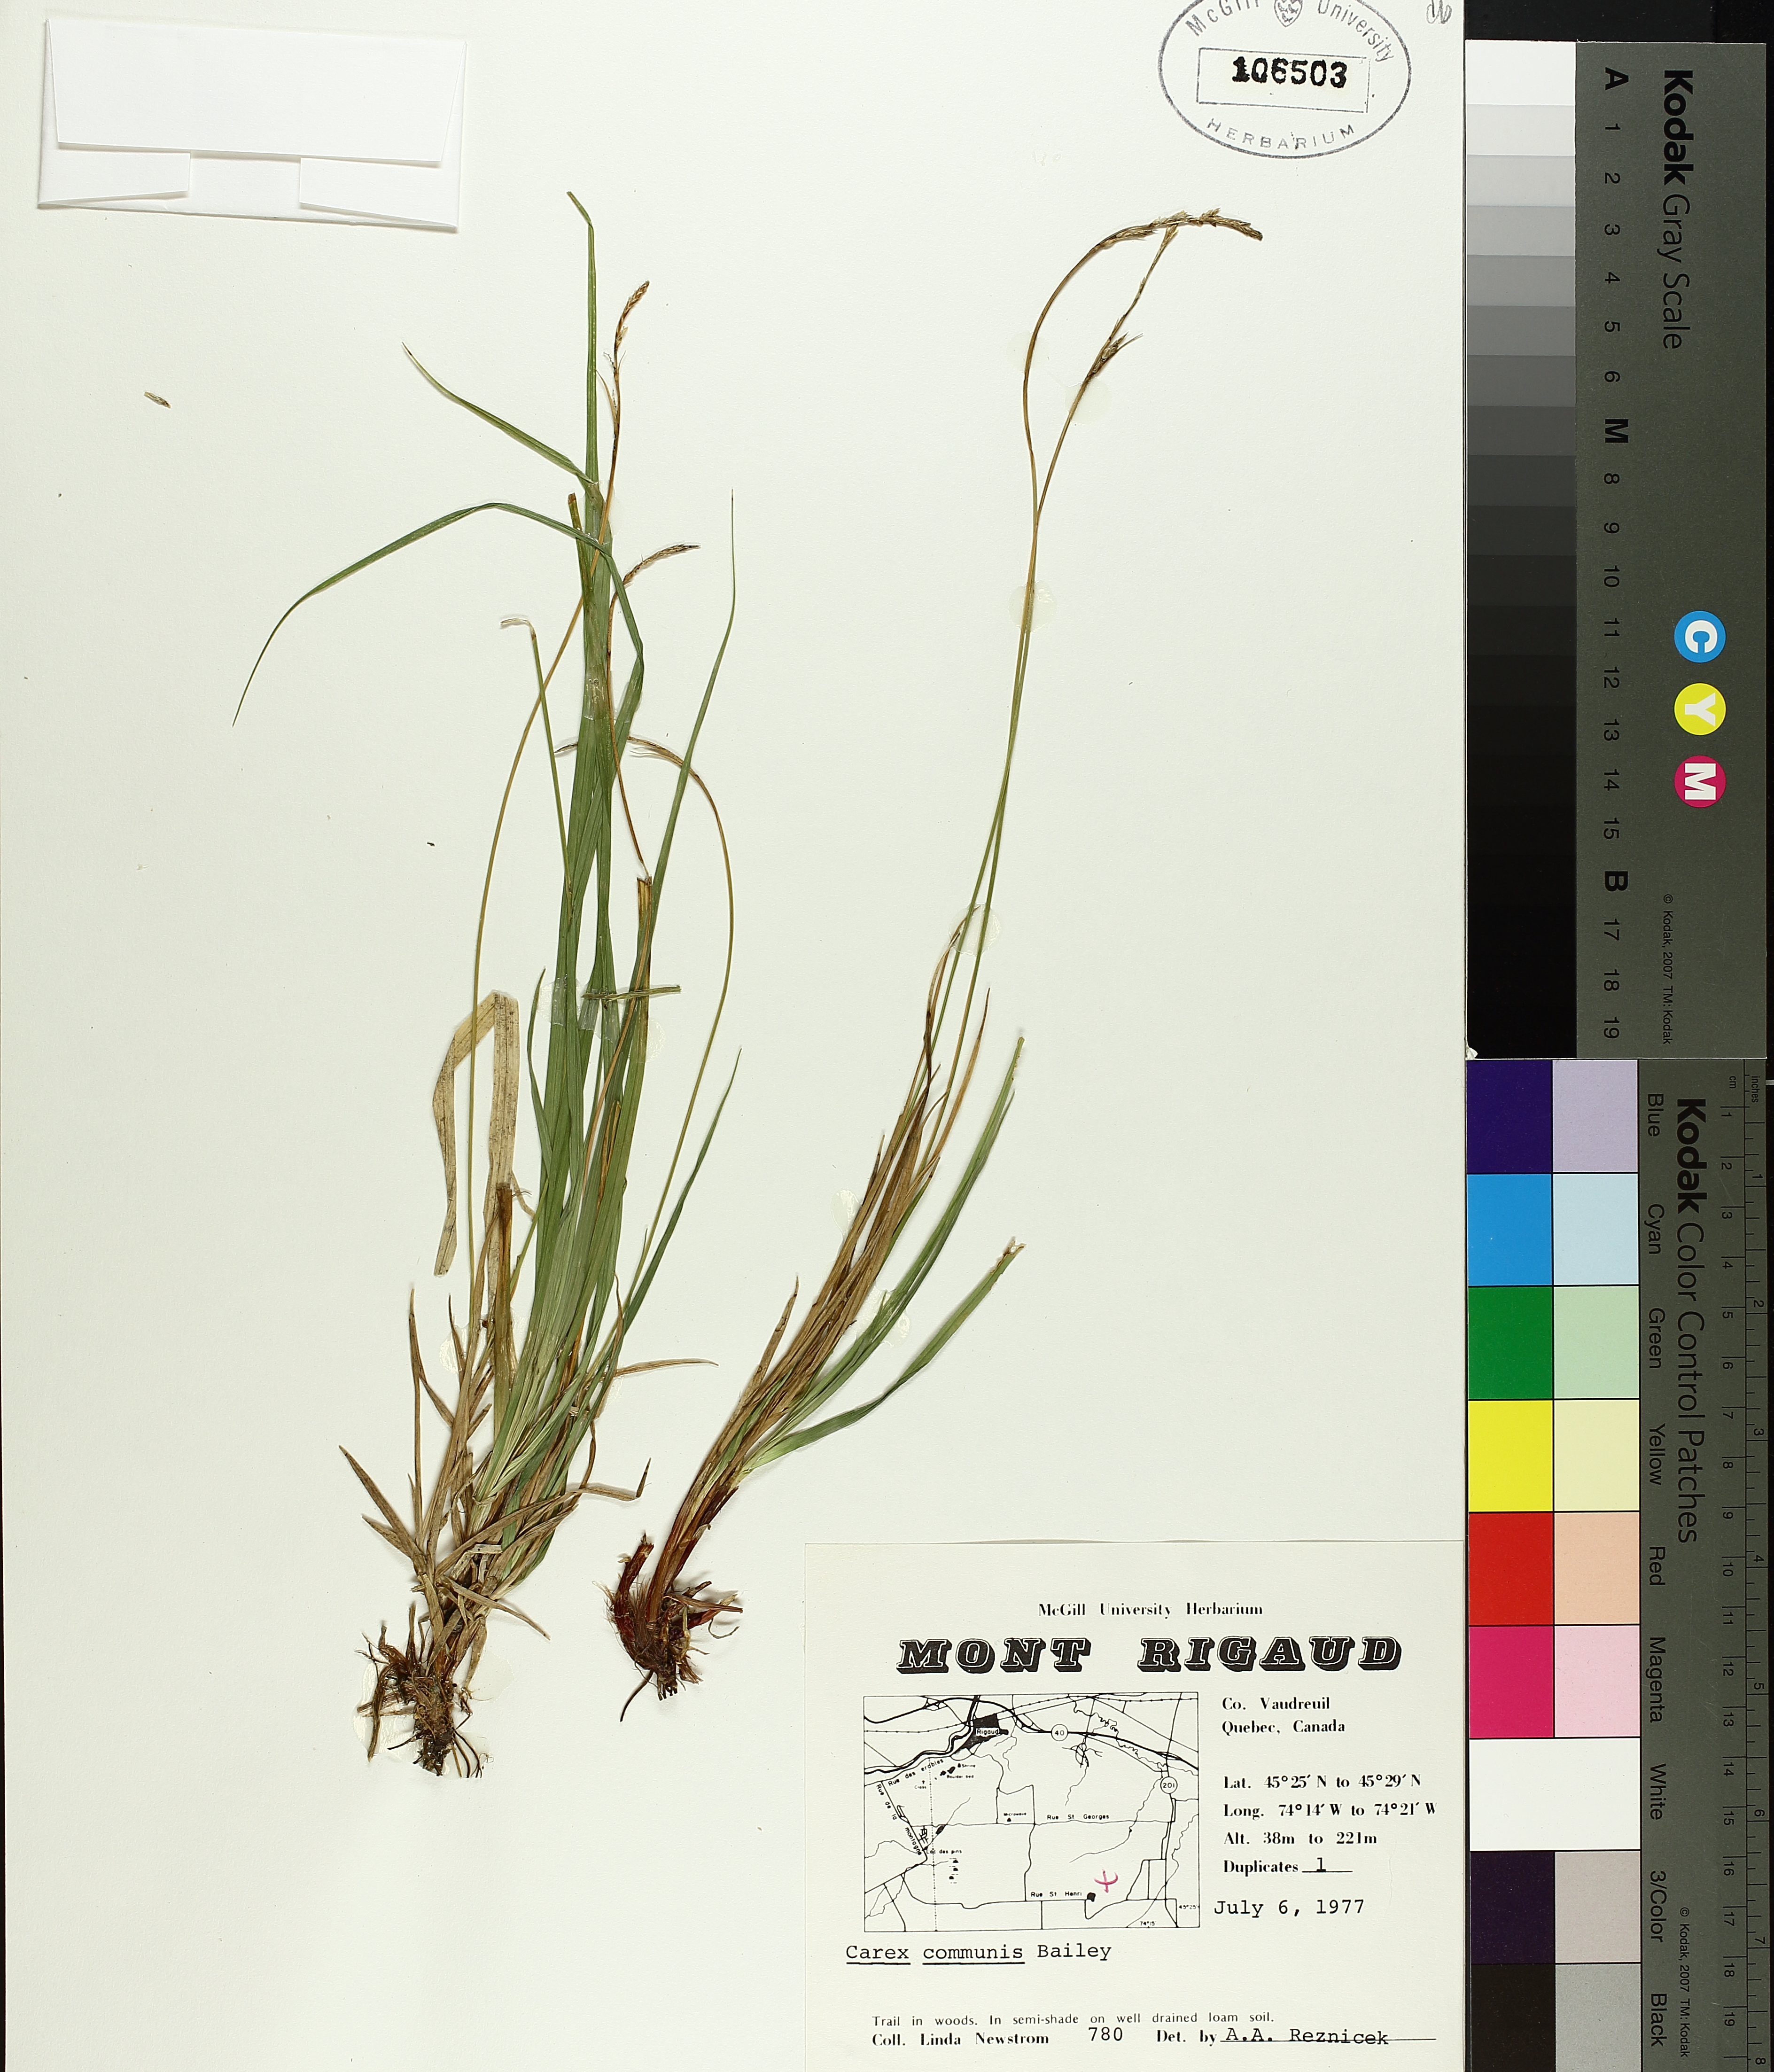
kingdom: Plantae
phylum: Tracheophyta
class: Liliopsida
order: Poales
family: Cyperaceae
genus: Carex
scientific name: Carex communis
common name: Colonial oak sedge
